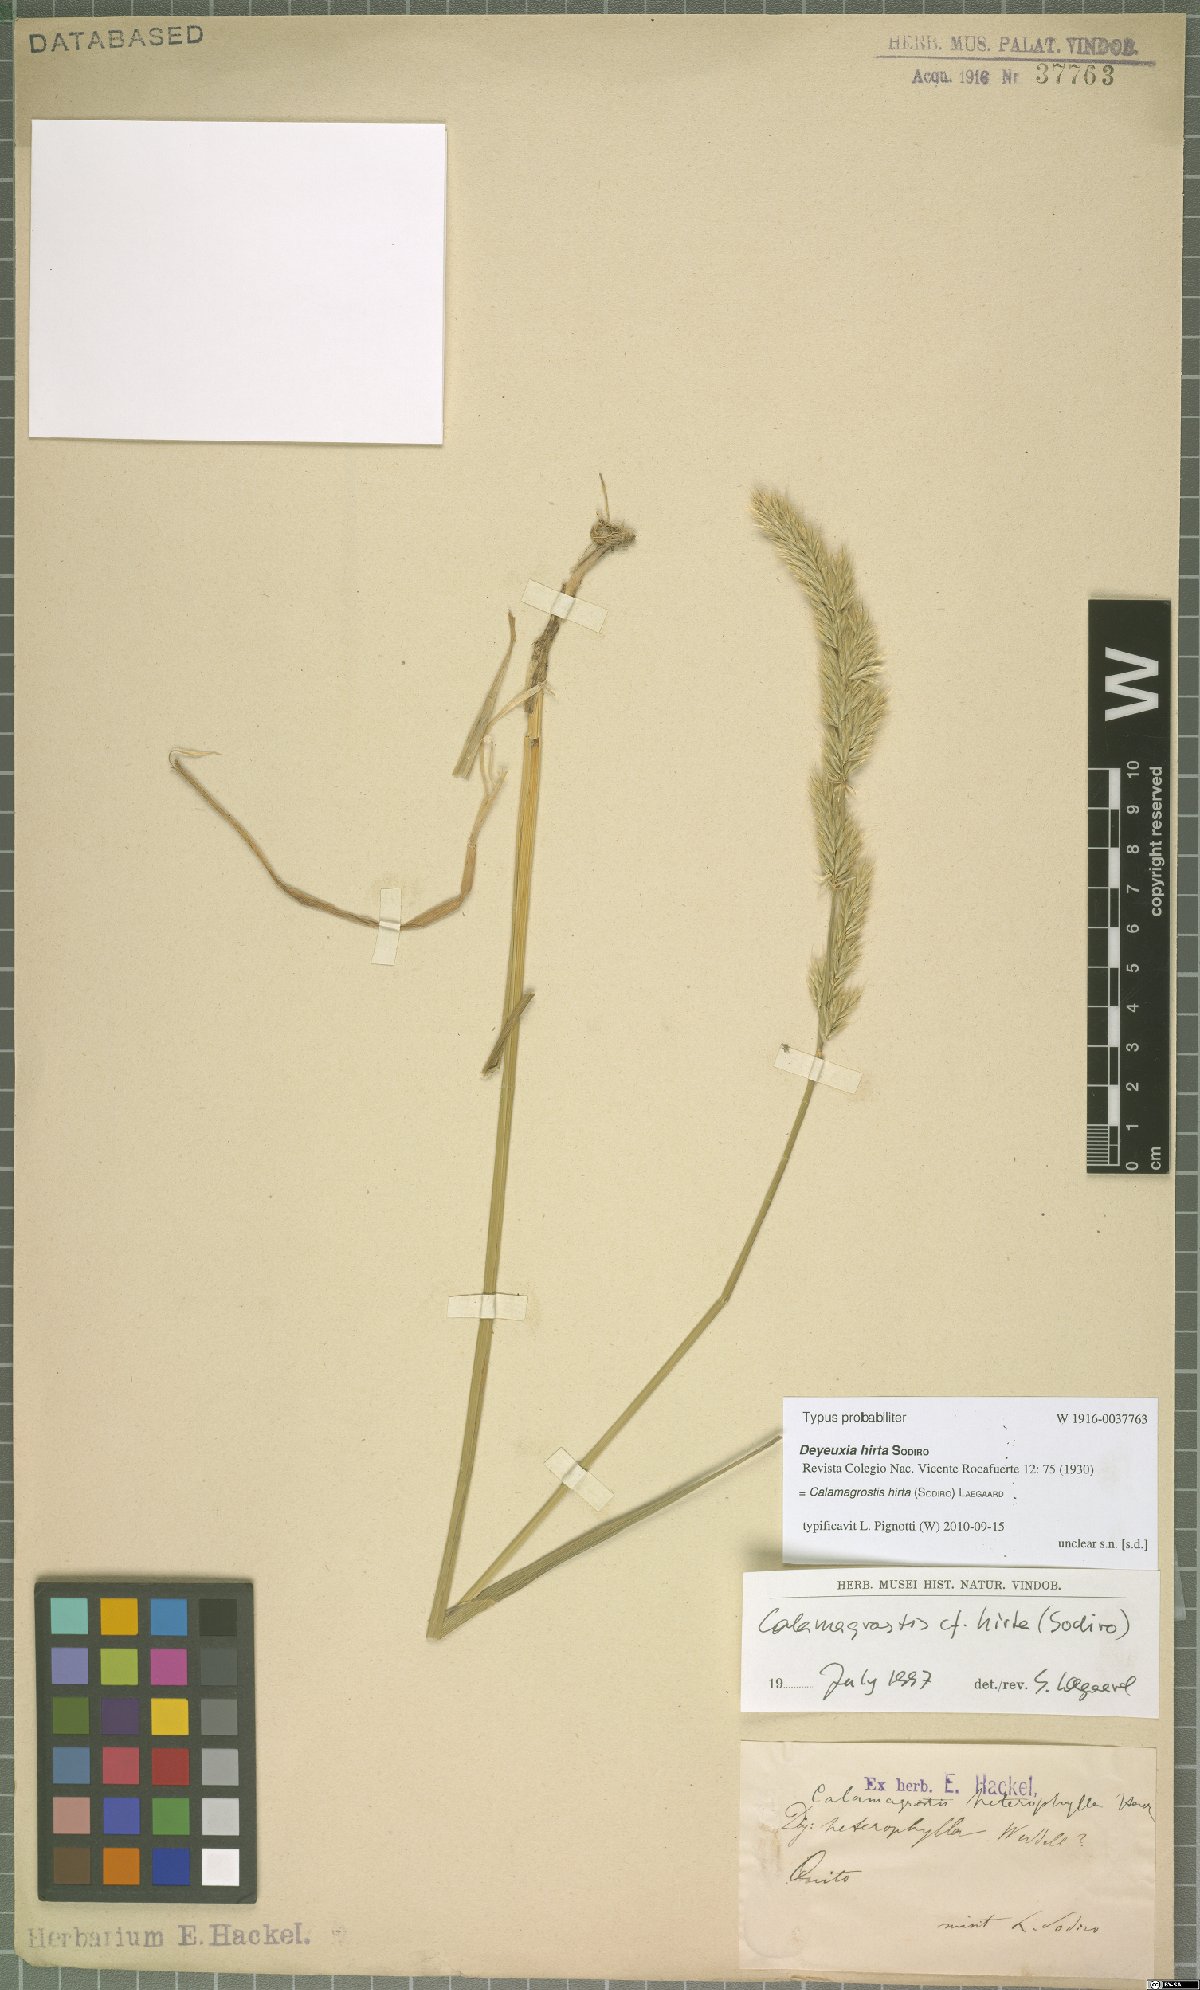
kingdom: Plantae
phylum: Tracheophyta
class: Liliopsida
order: Poales
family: Poaceae
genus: Cinnagrostis
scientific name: Cinnagrostis hirta
